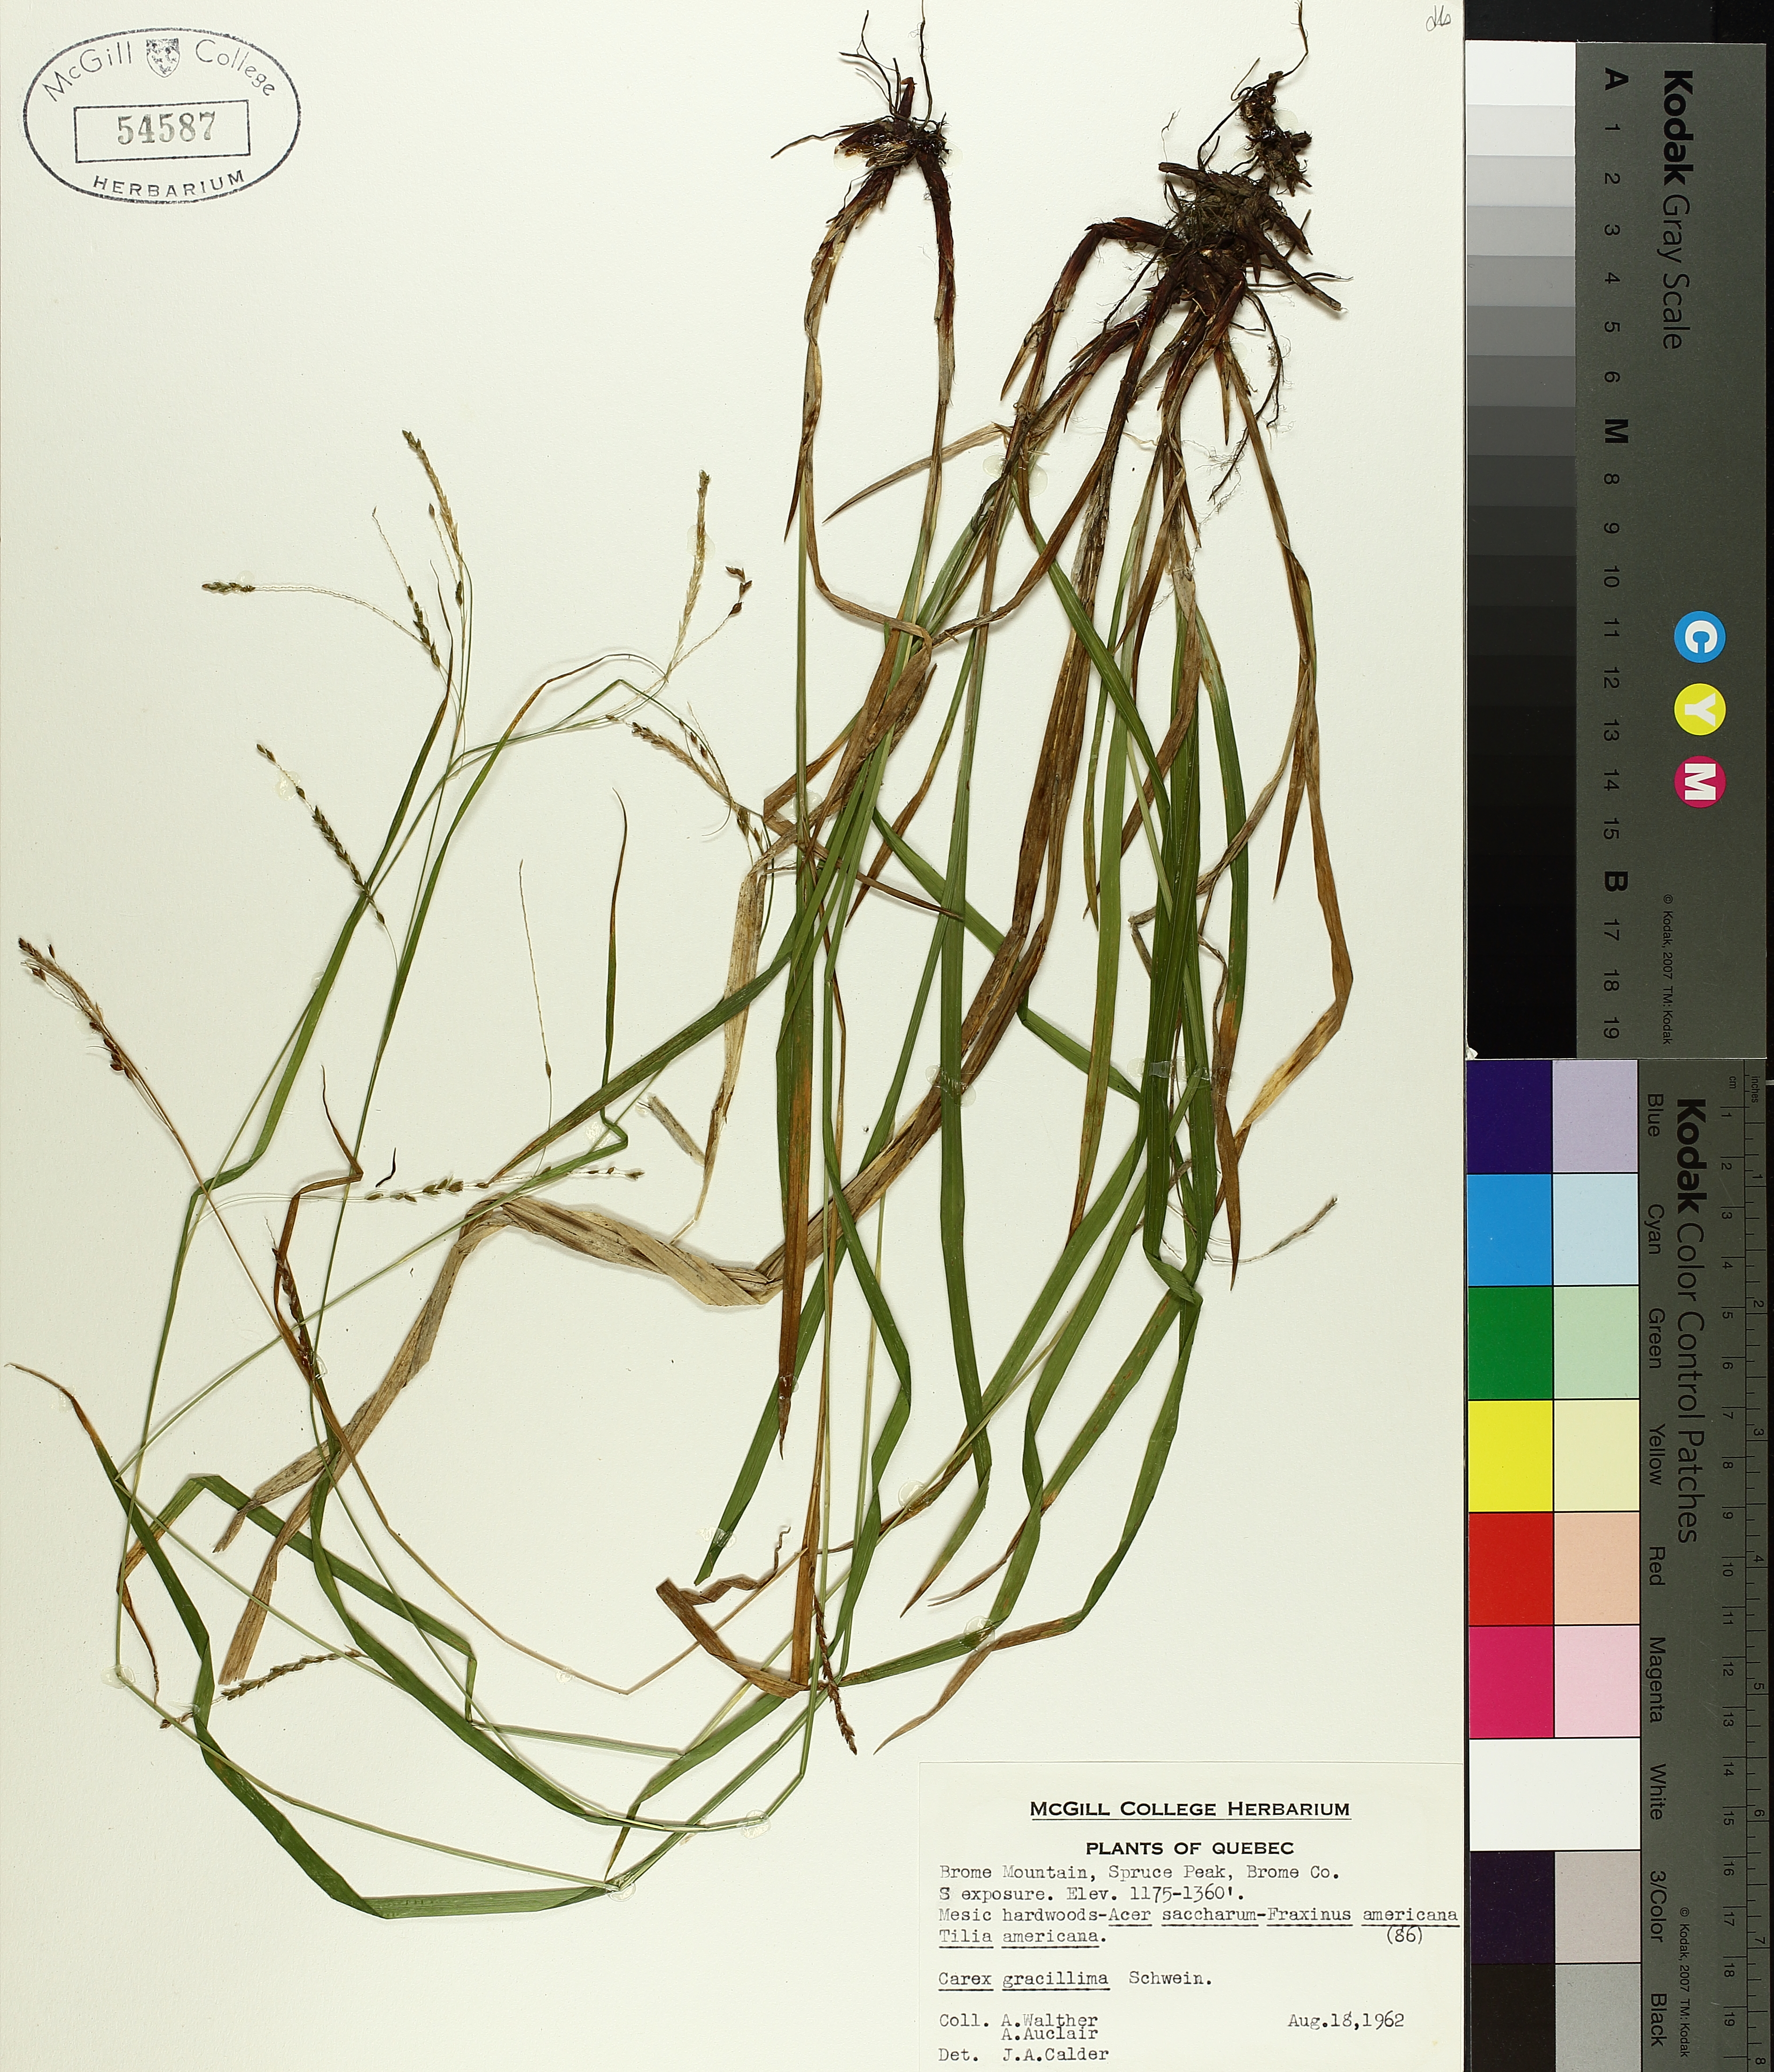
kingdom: Plantae
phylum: Tracheophyta
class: Liliopsida
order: Poales
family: Cyperaceae
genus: Carex
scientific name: Carex gracillima
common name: Graceful sedge
